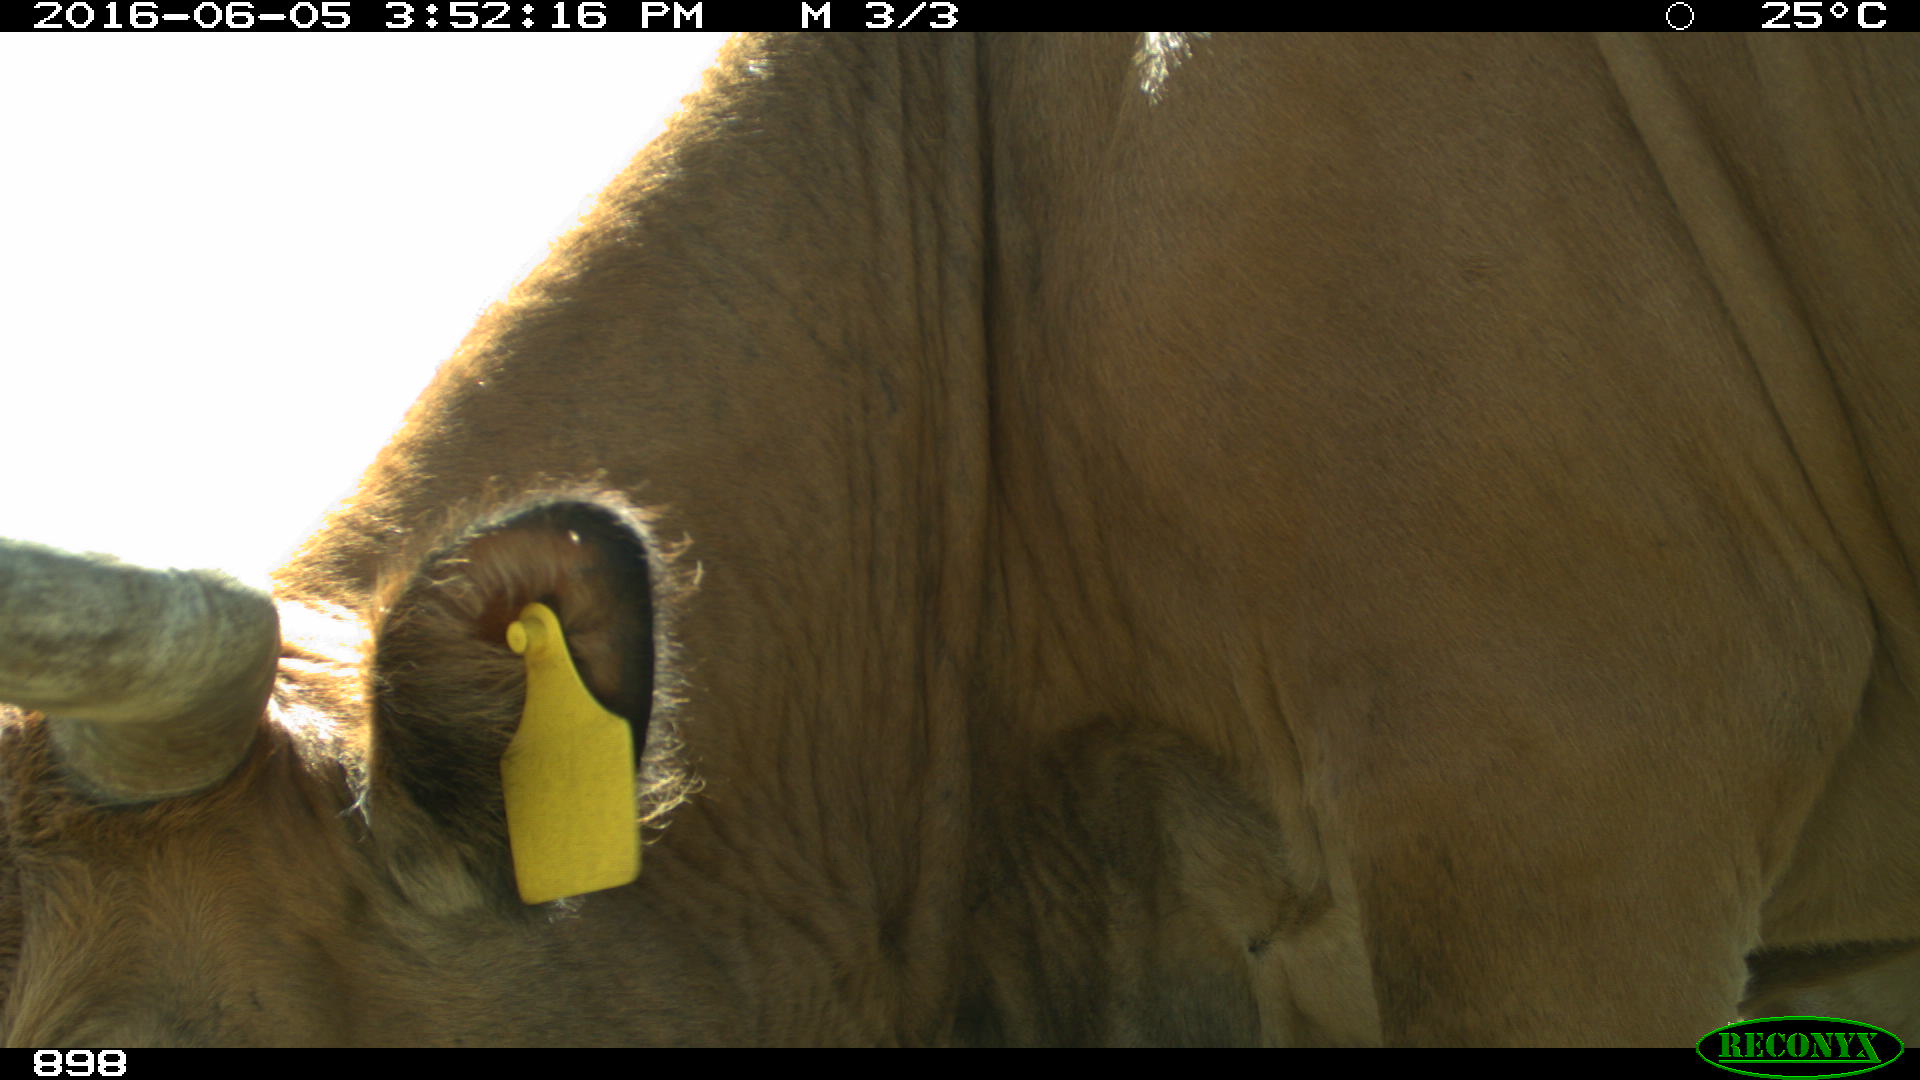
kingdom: Animalia
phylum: Chordata
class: Mammalia
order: Artiodactyla
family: Bovidae
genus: Bos
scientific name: Bos taurus
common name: Domesticated cattle
